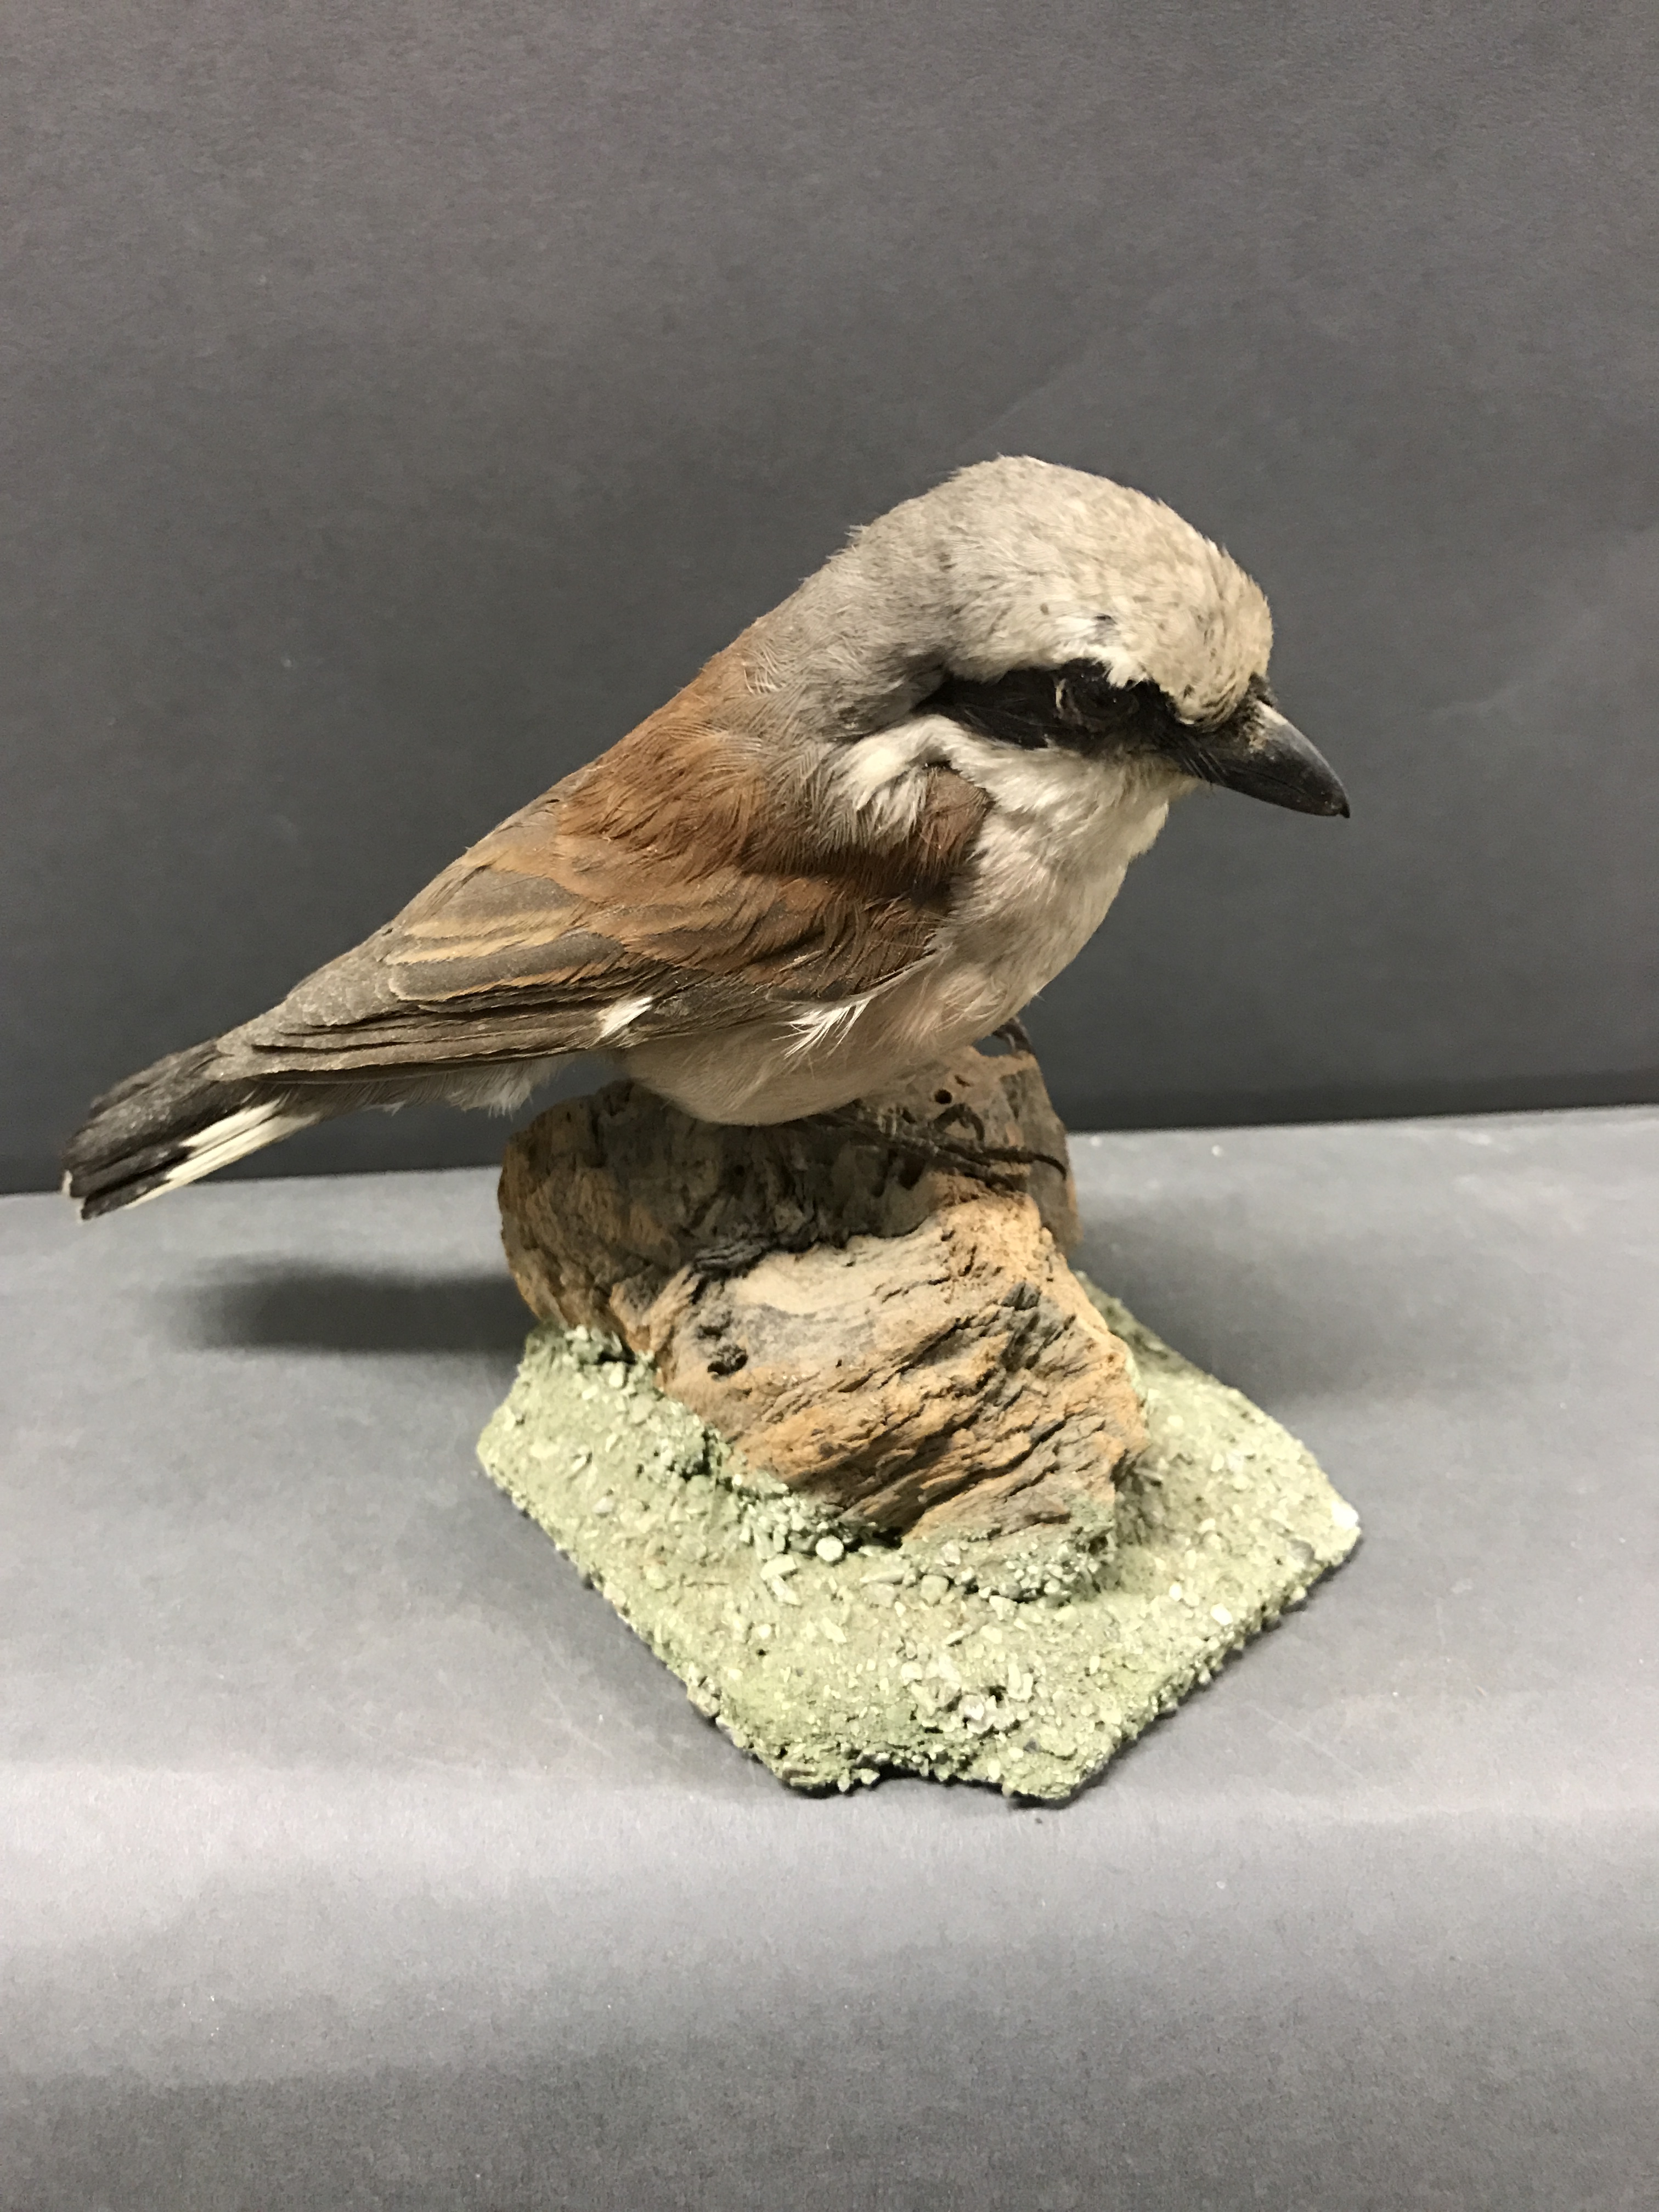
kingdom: Animalia
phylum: Chordata
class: Aves
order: Passeriformes
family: Laniidae
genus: Lanius
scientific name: Lanius collurio
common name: Red-backed shrike
